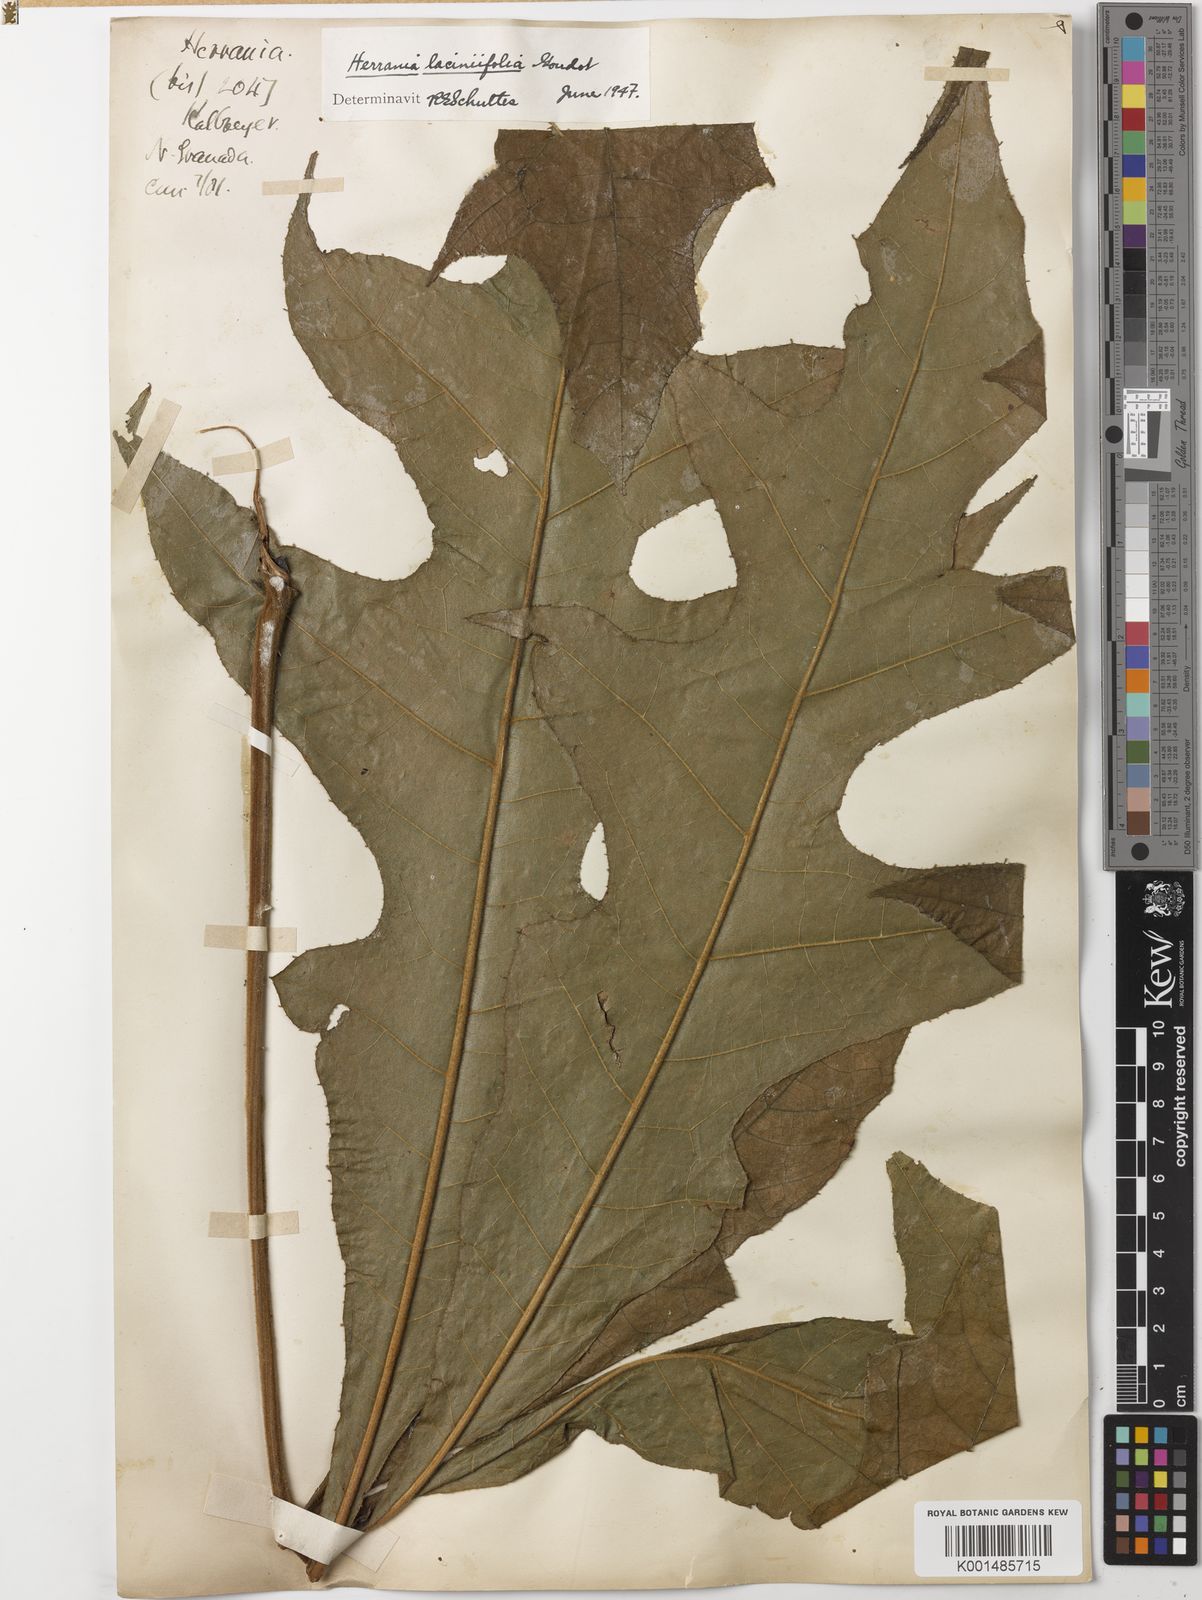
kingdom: Plantae
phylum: Tracheophyta
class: Magnoliopsida
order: Malvales
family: Malvaceae
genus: Herrania
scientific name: Herrania laciniifolia
